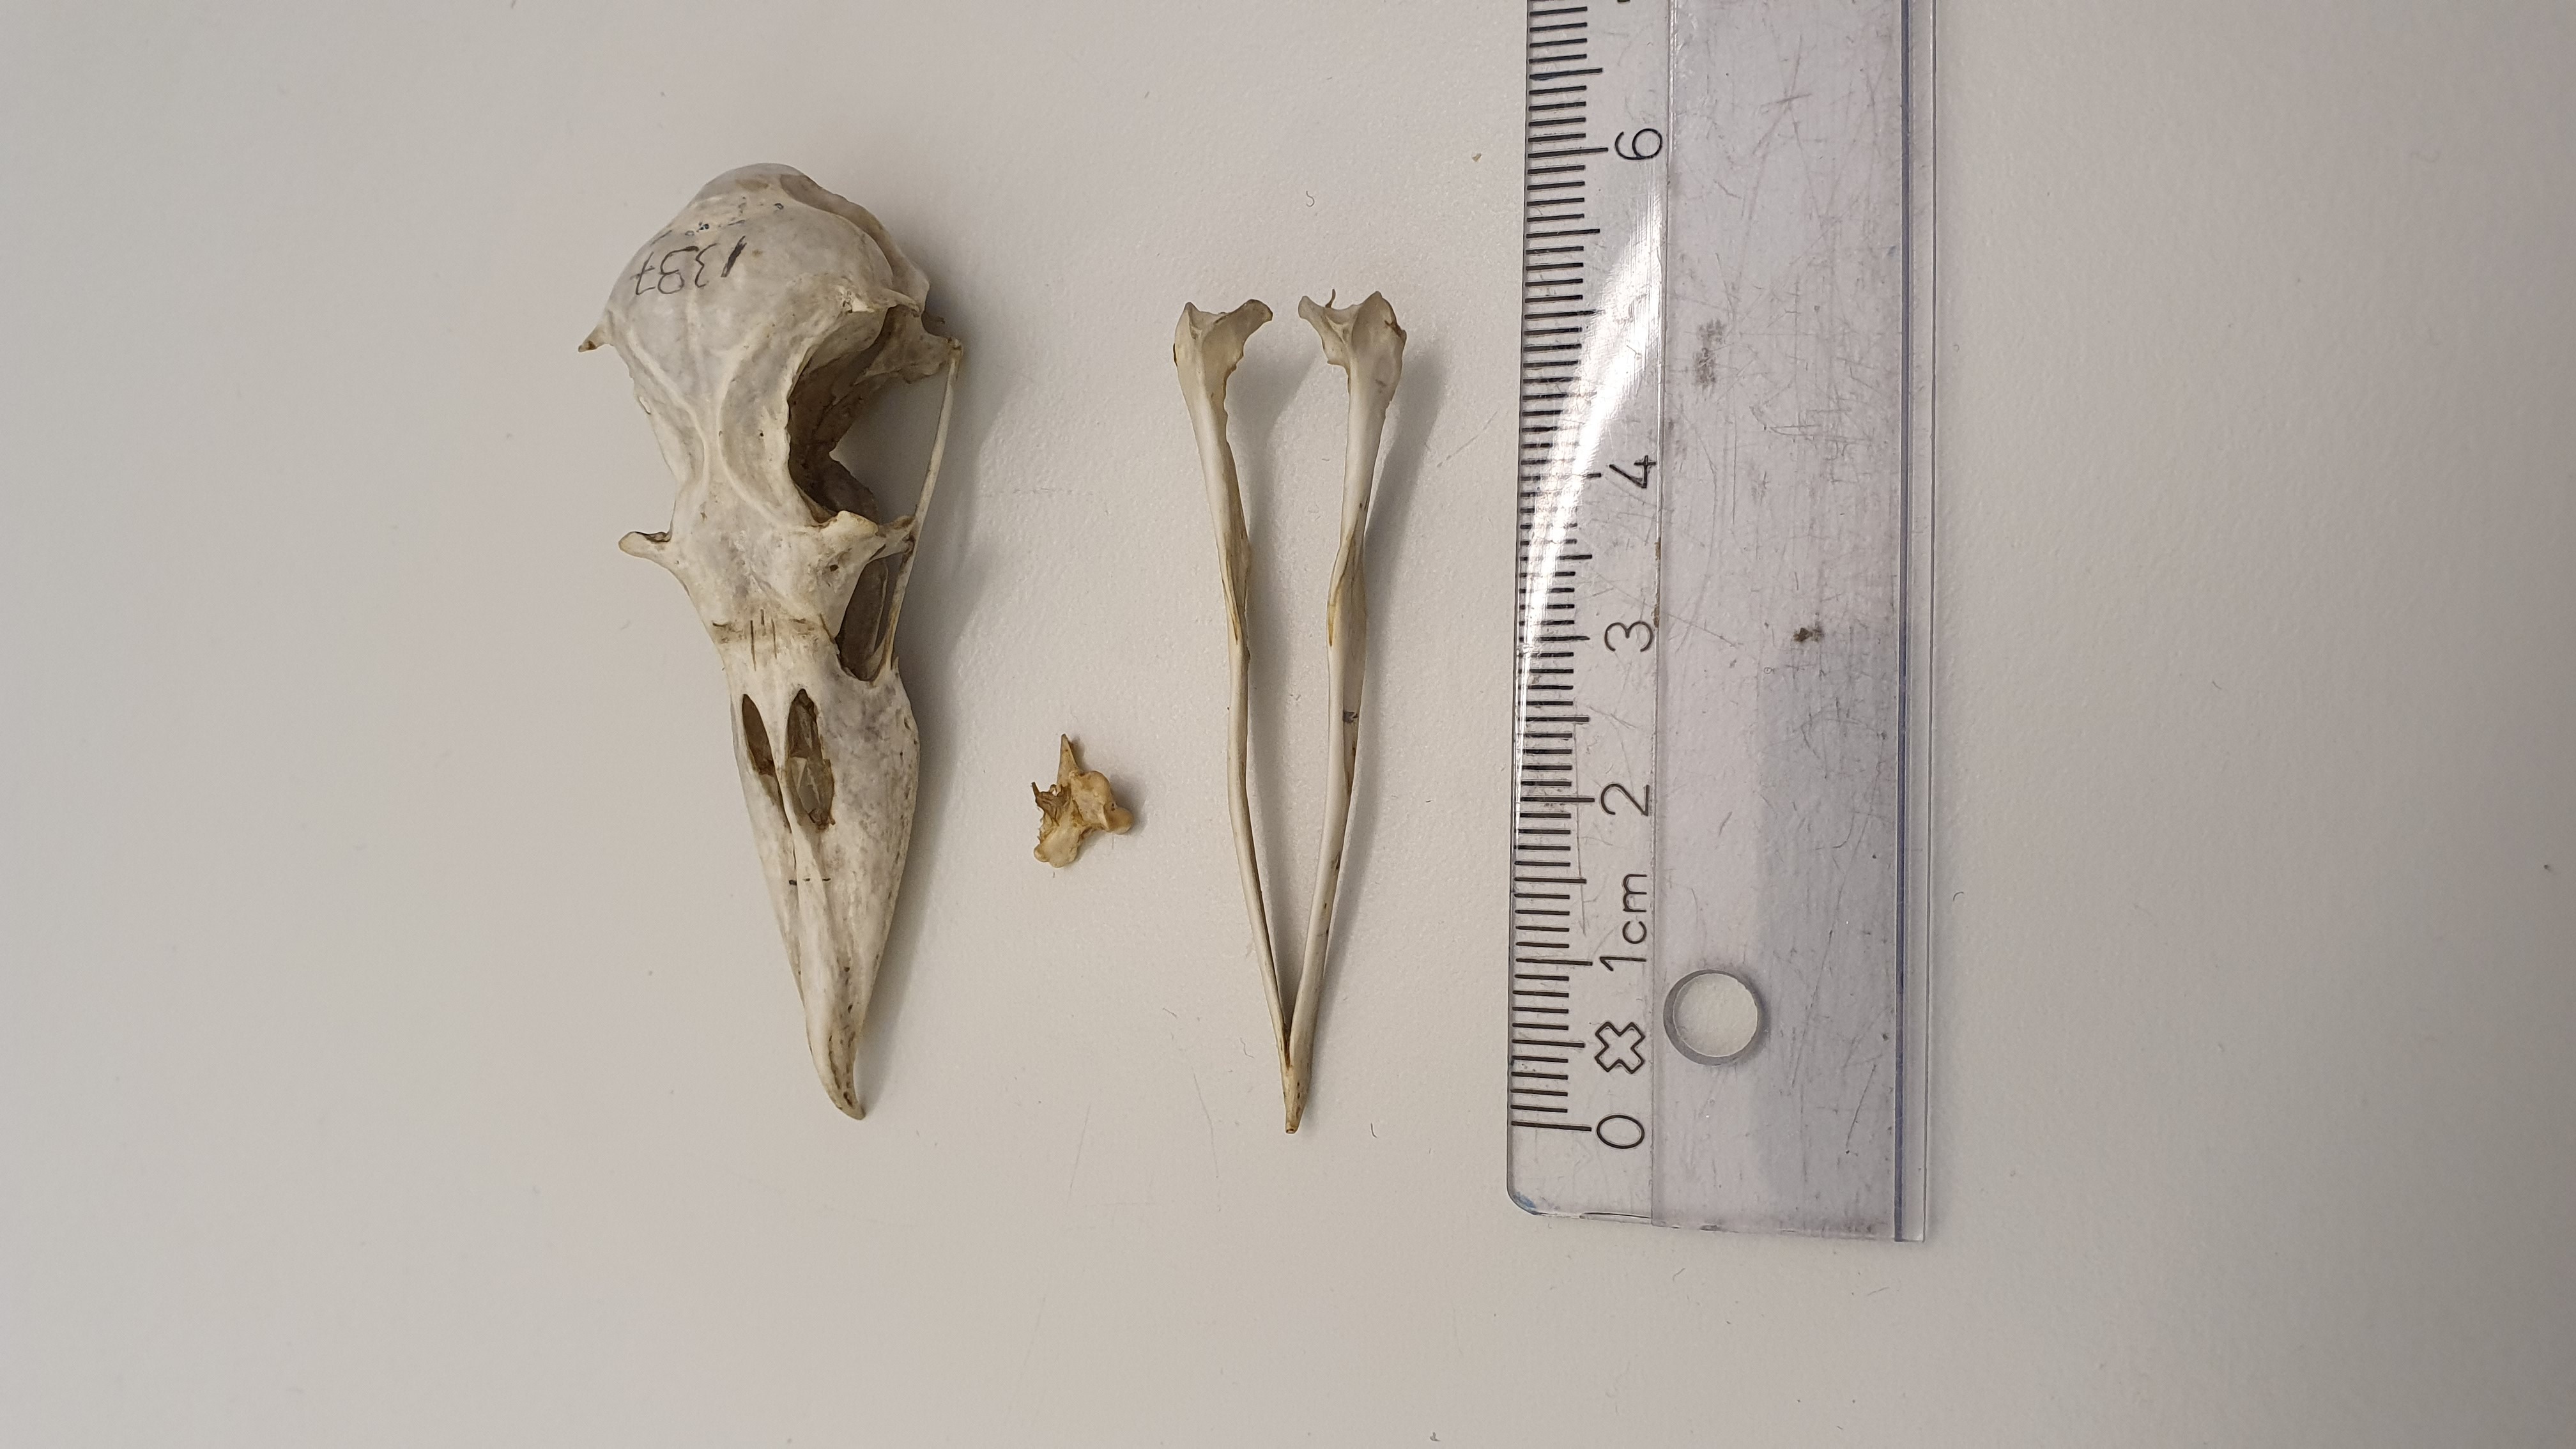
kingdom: Animalia
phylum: Chordata
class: Aves
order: Procellariiformes
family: Procellariidae
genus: Pachyptila
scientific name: Pachyptila
